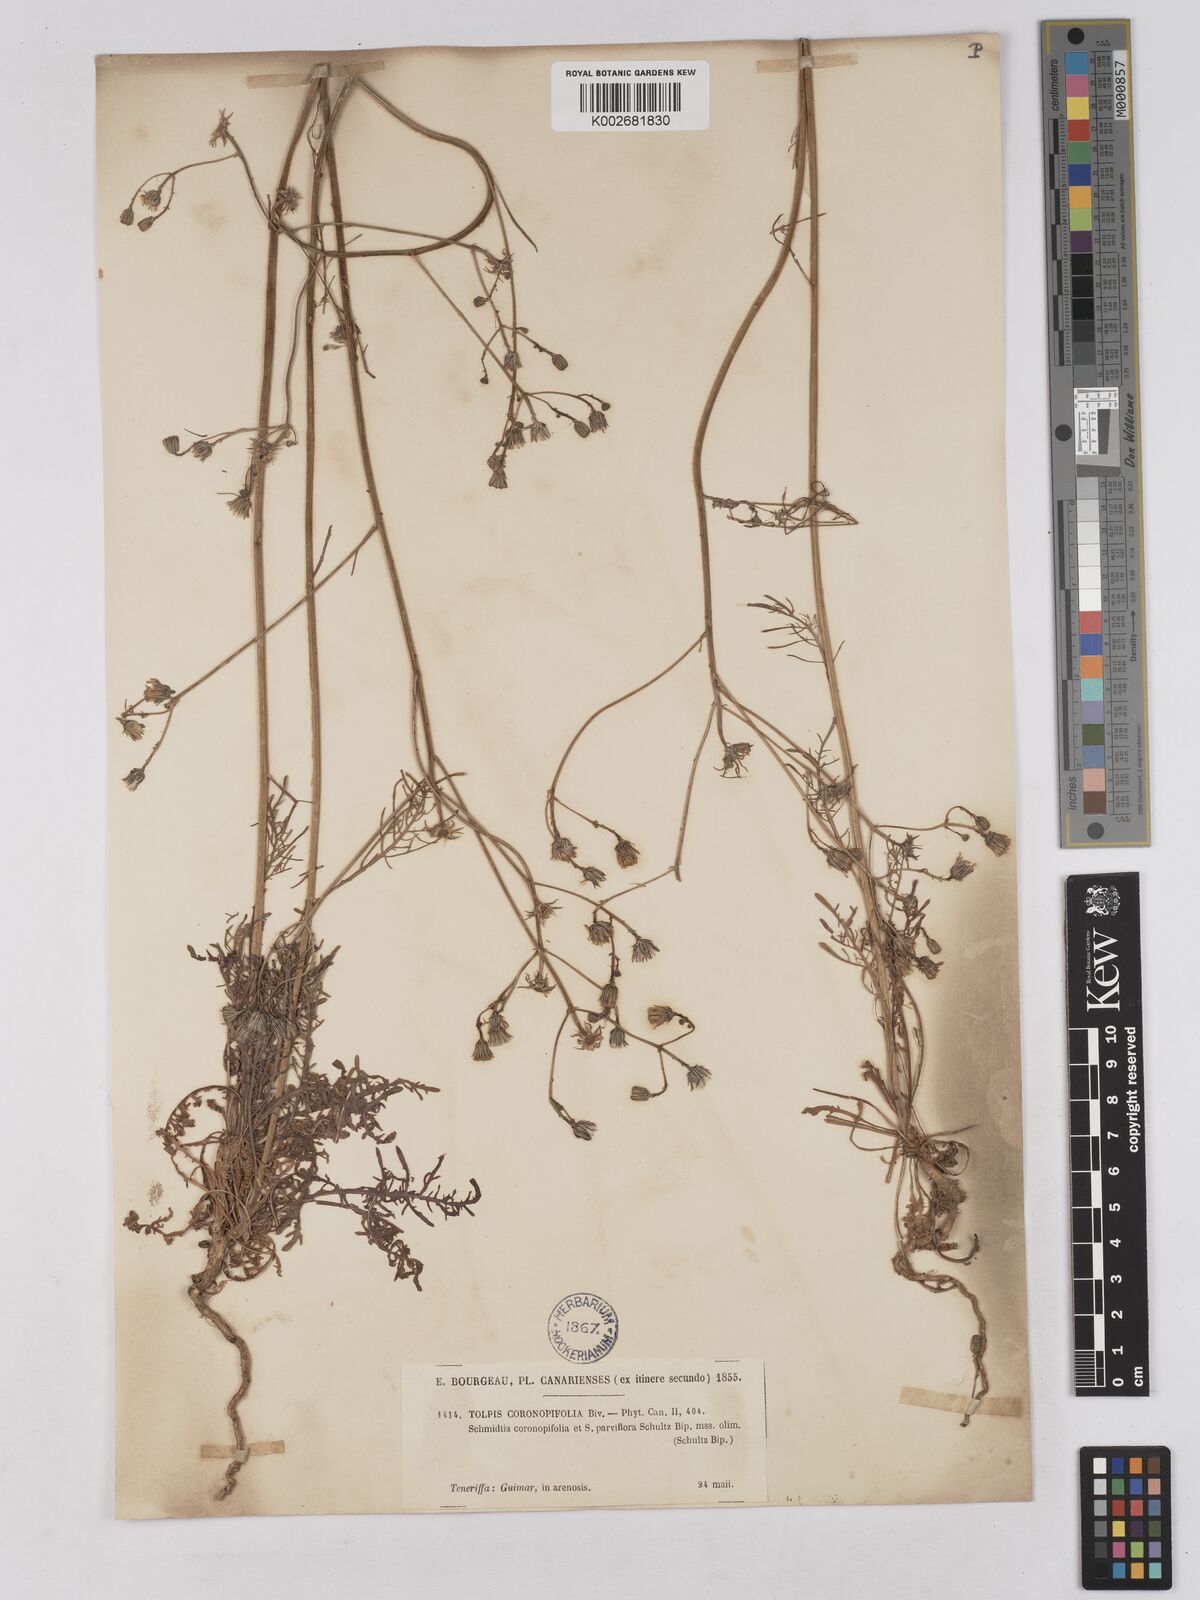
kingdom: Plantae
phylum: Tracheophyta
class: Magnoliopsida
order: Asterales
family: Asteraceae
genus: Tolpis
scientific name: Tolpis coronopifolia
